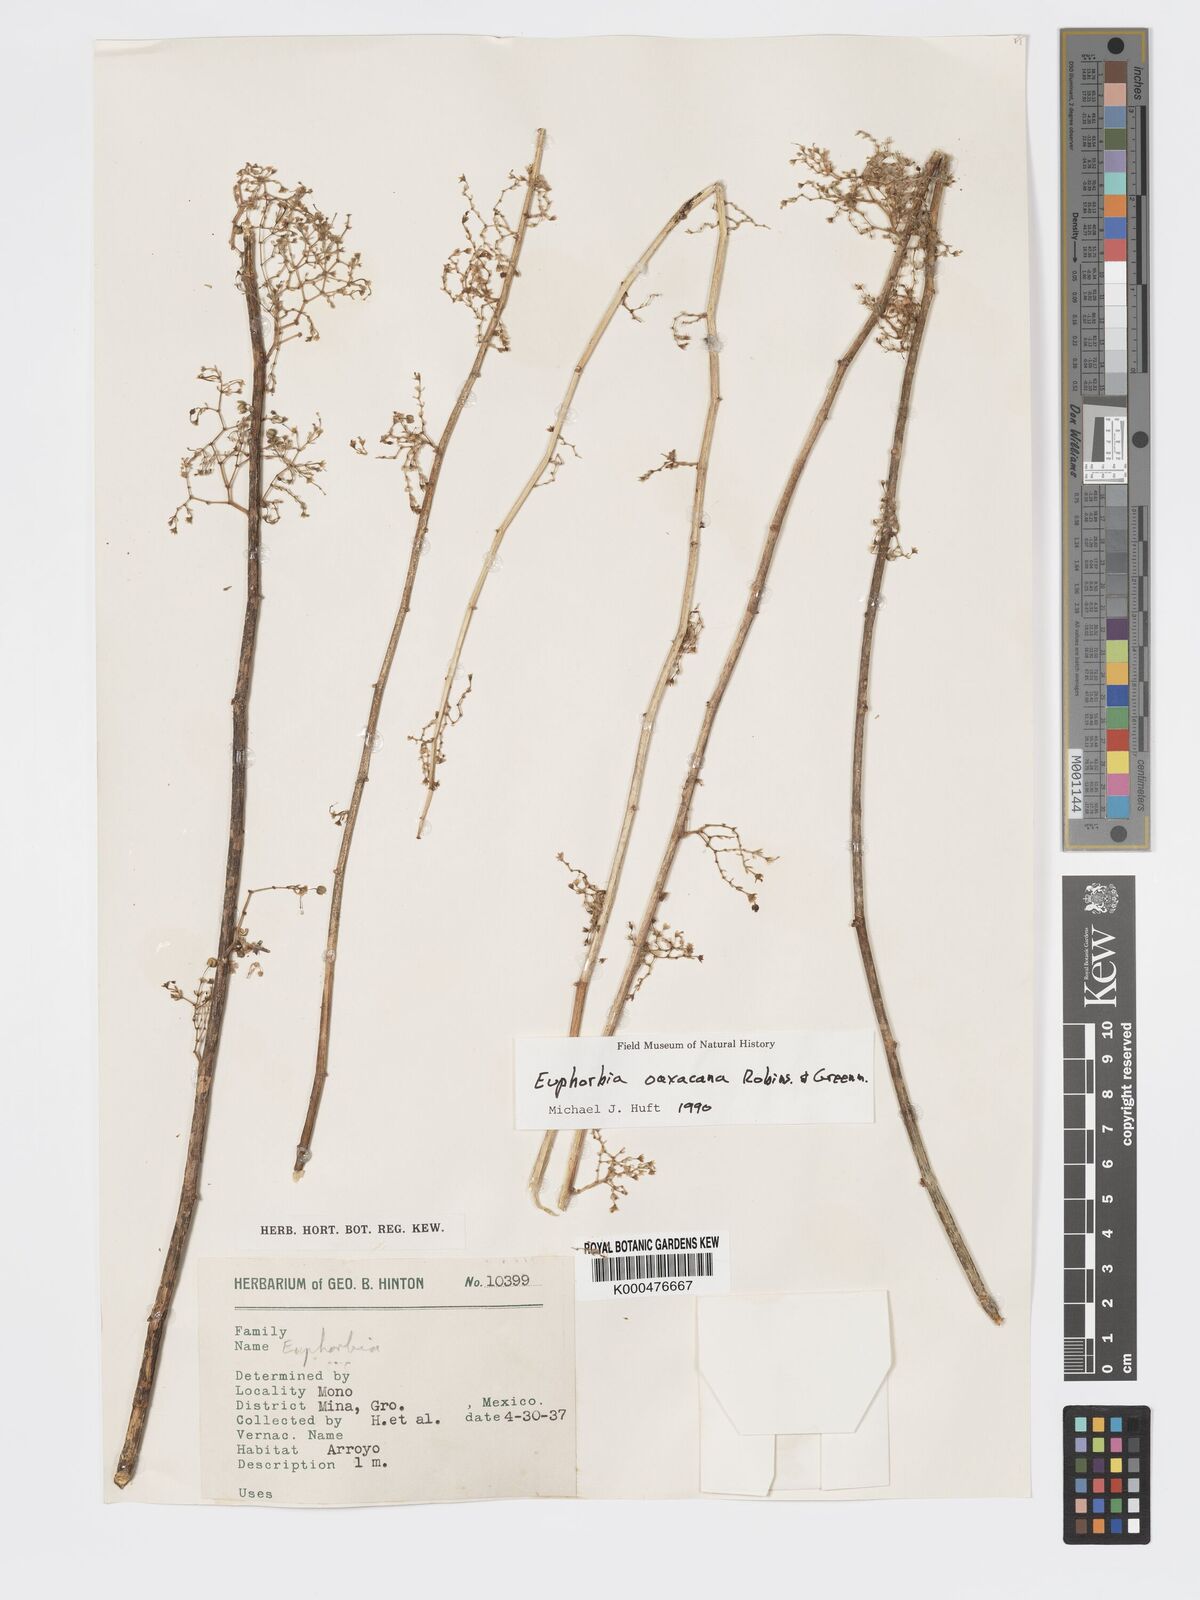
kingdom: Plantae
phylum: Tracheophyta
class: Magnoliopsida
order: Malpighiales
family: Euphorbiaceae
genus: Euphorbia
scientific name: Euphorbia oaxacana
